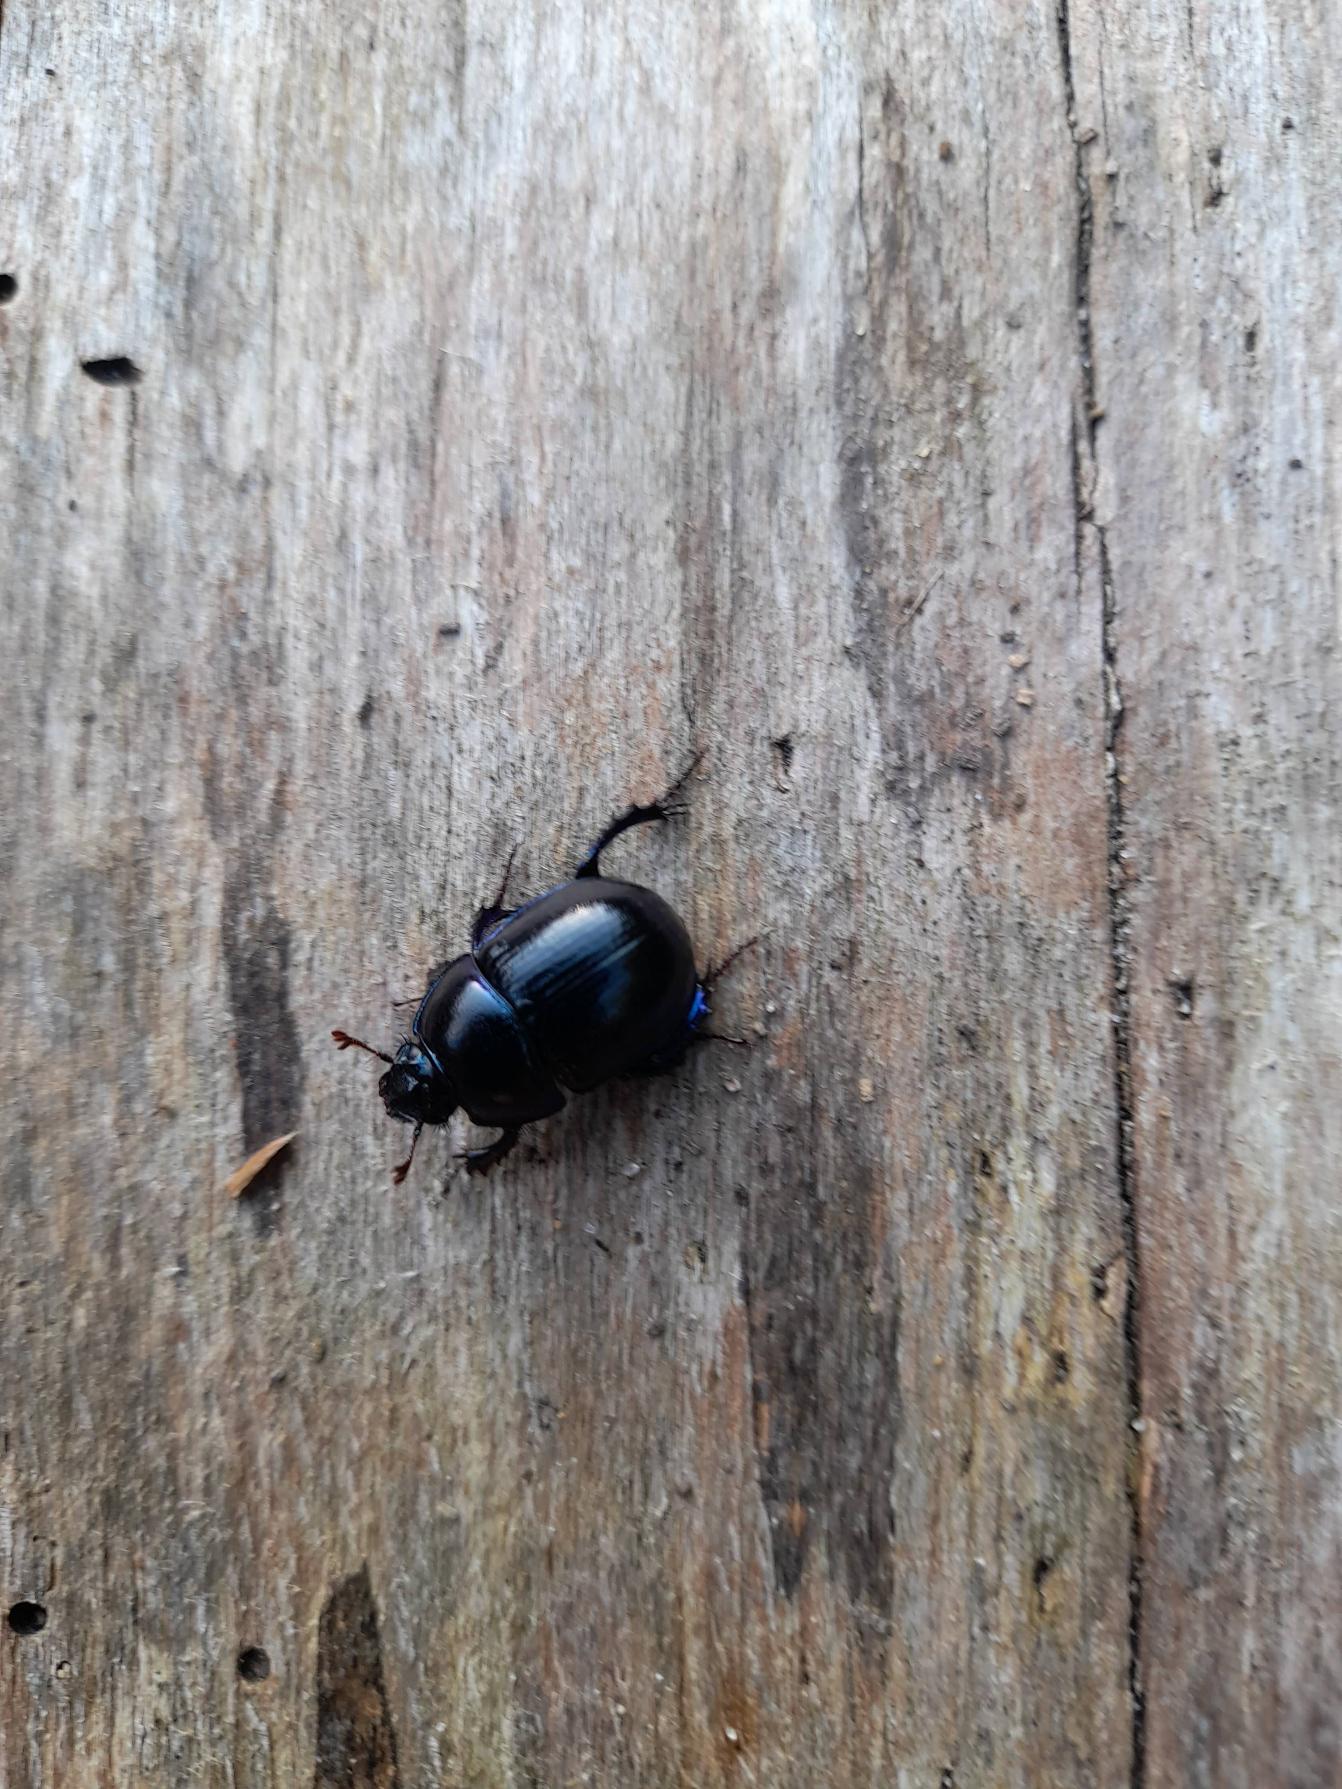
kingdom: Animalia
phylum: Arthropoda
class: Insecta
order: Coleoptera
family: Geotrupidae
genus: Anoplotrupes
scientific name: Anoplotrupes stercorosus
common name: Skovskarnbasse
